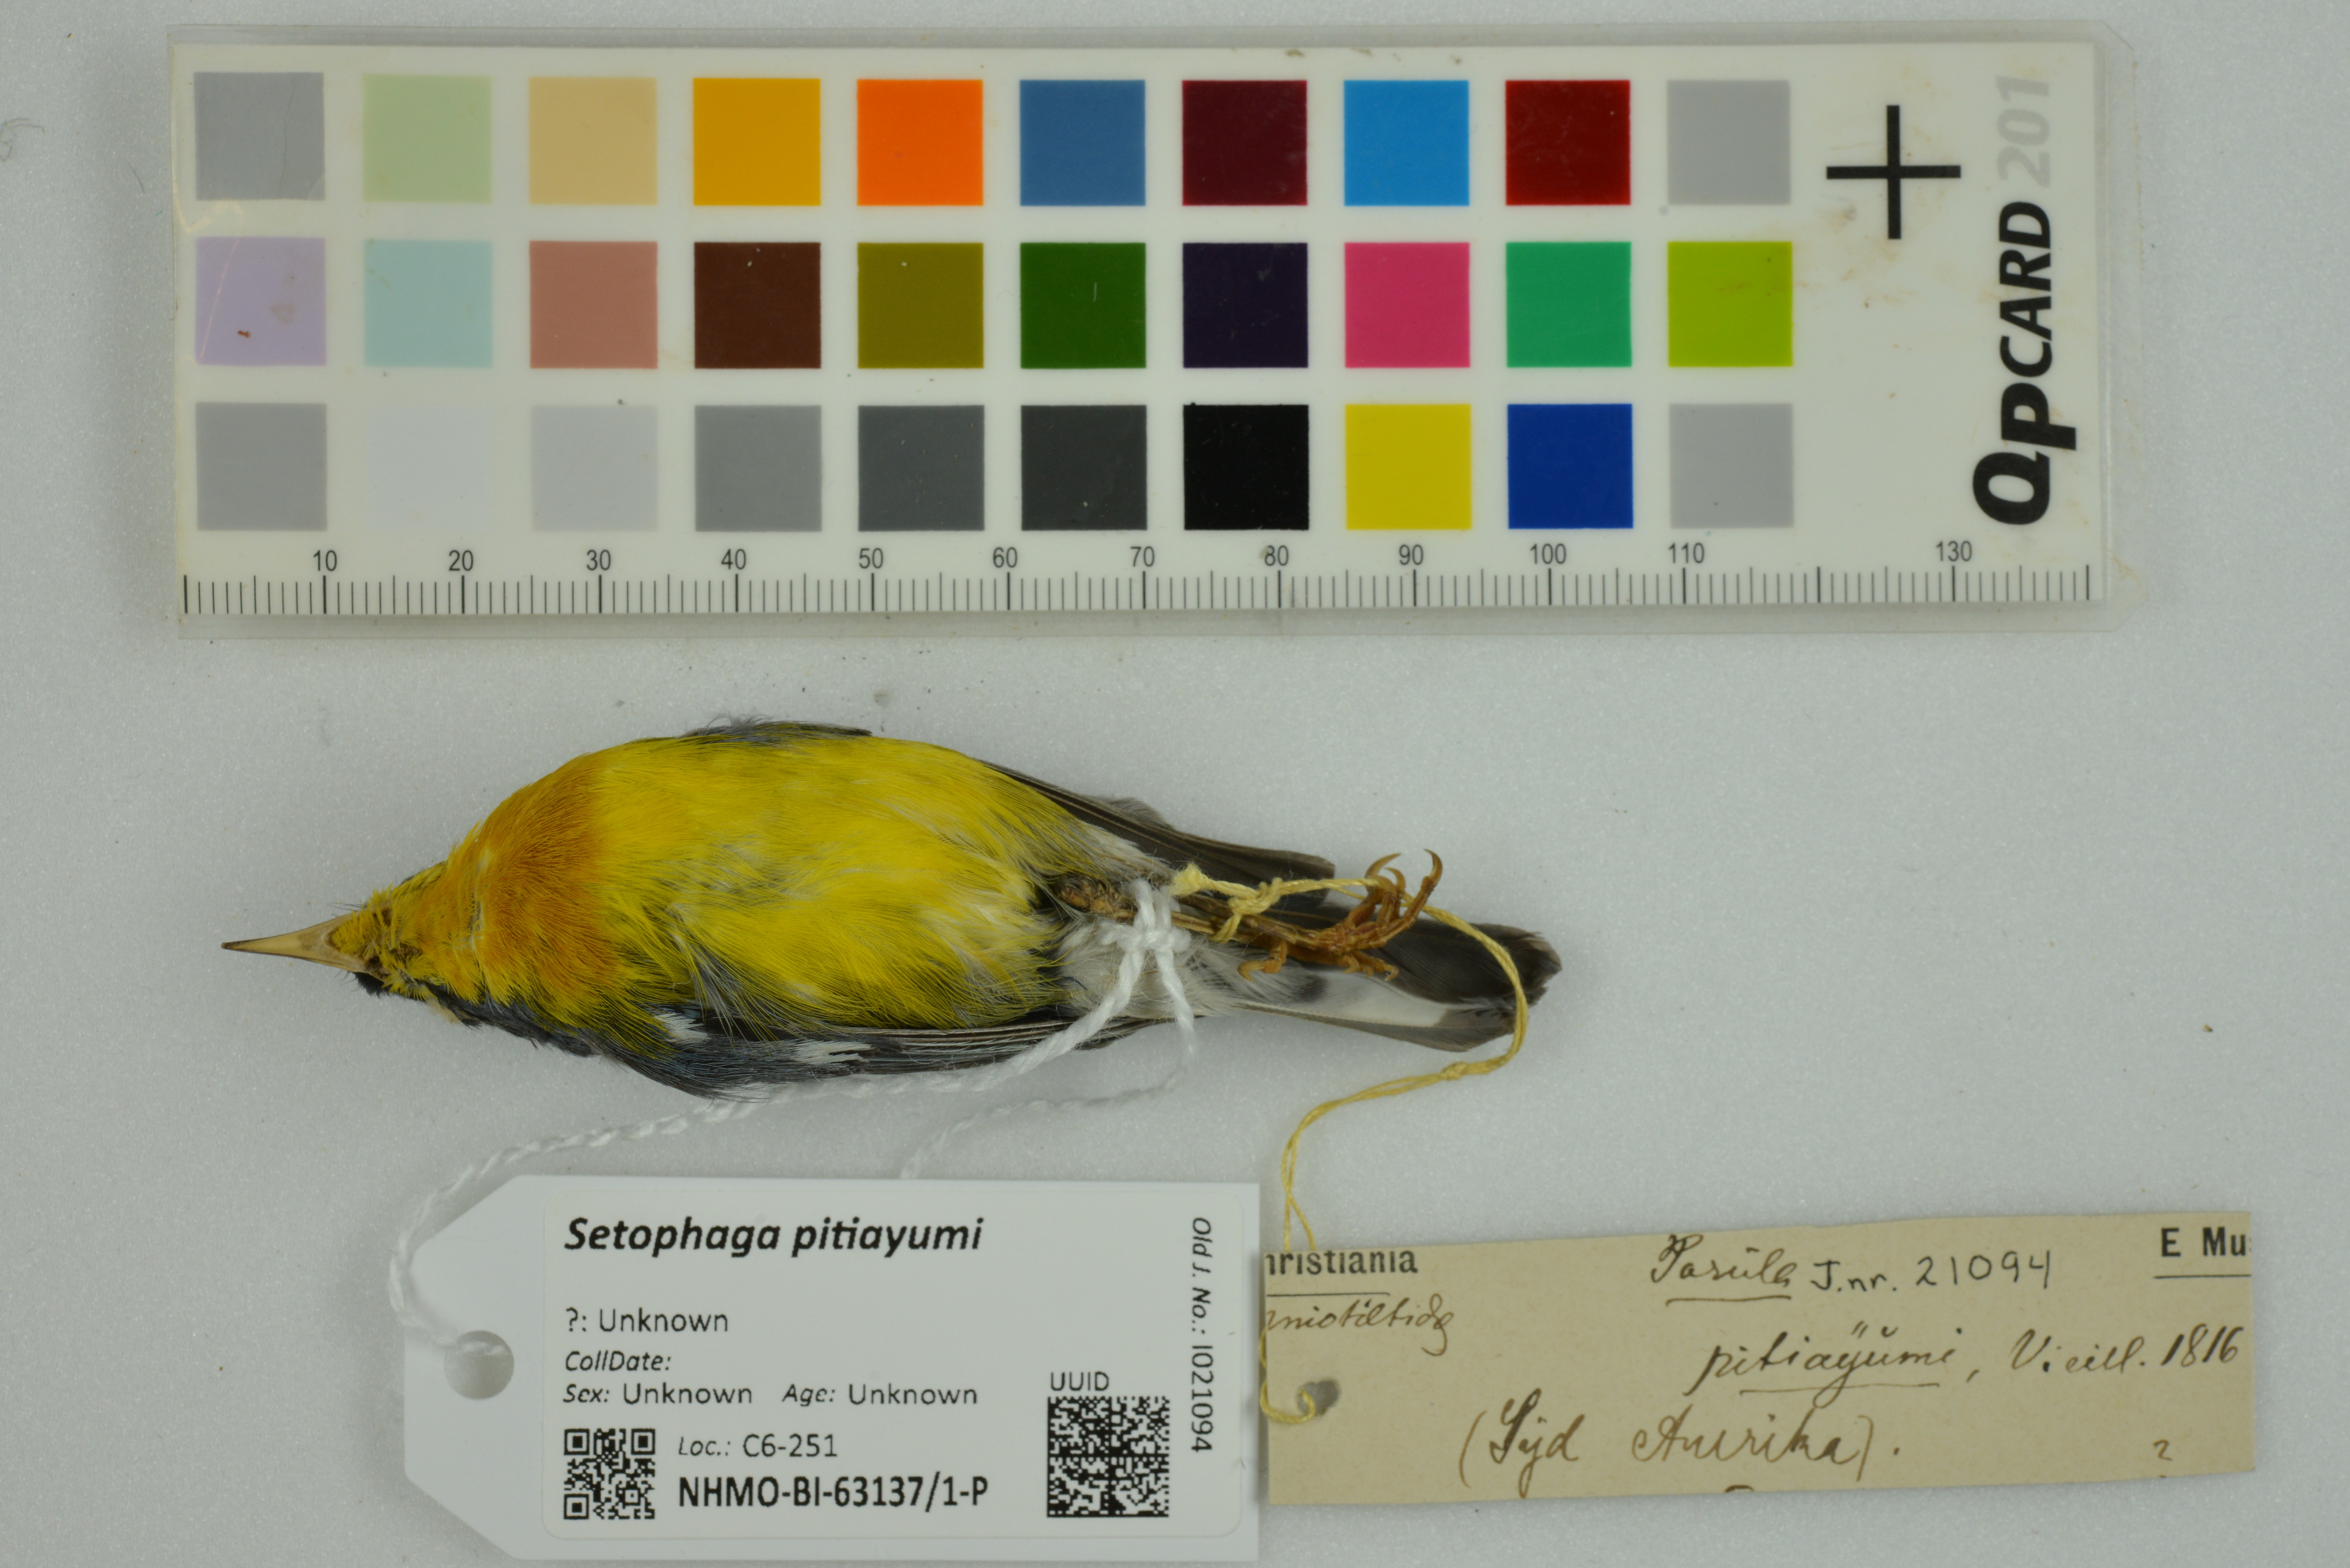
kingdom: Animalia
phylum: Chordata
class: Aves
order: Passeriformes
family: Parulidae
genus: Setophaga
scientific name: Setophaga pitiayumi
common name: Tropical parula
